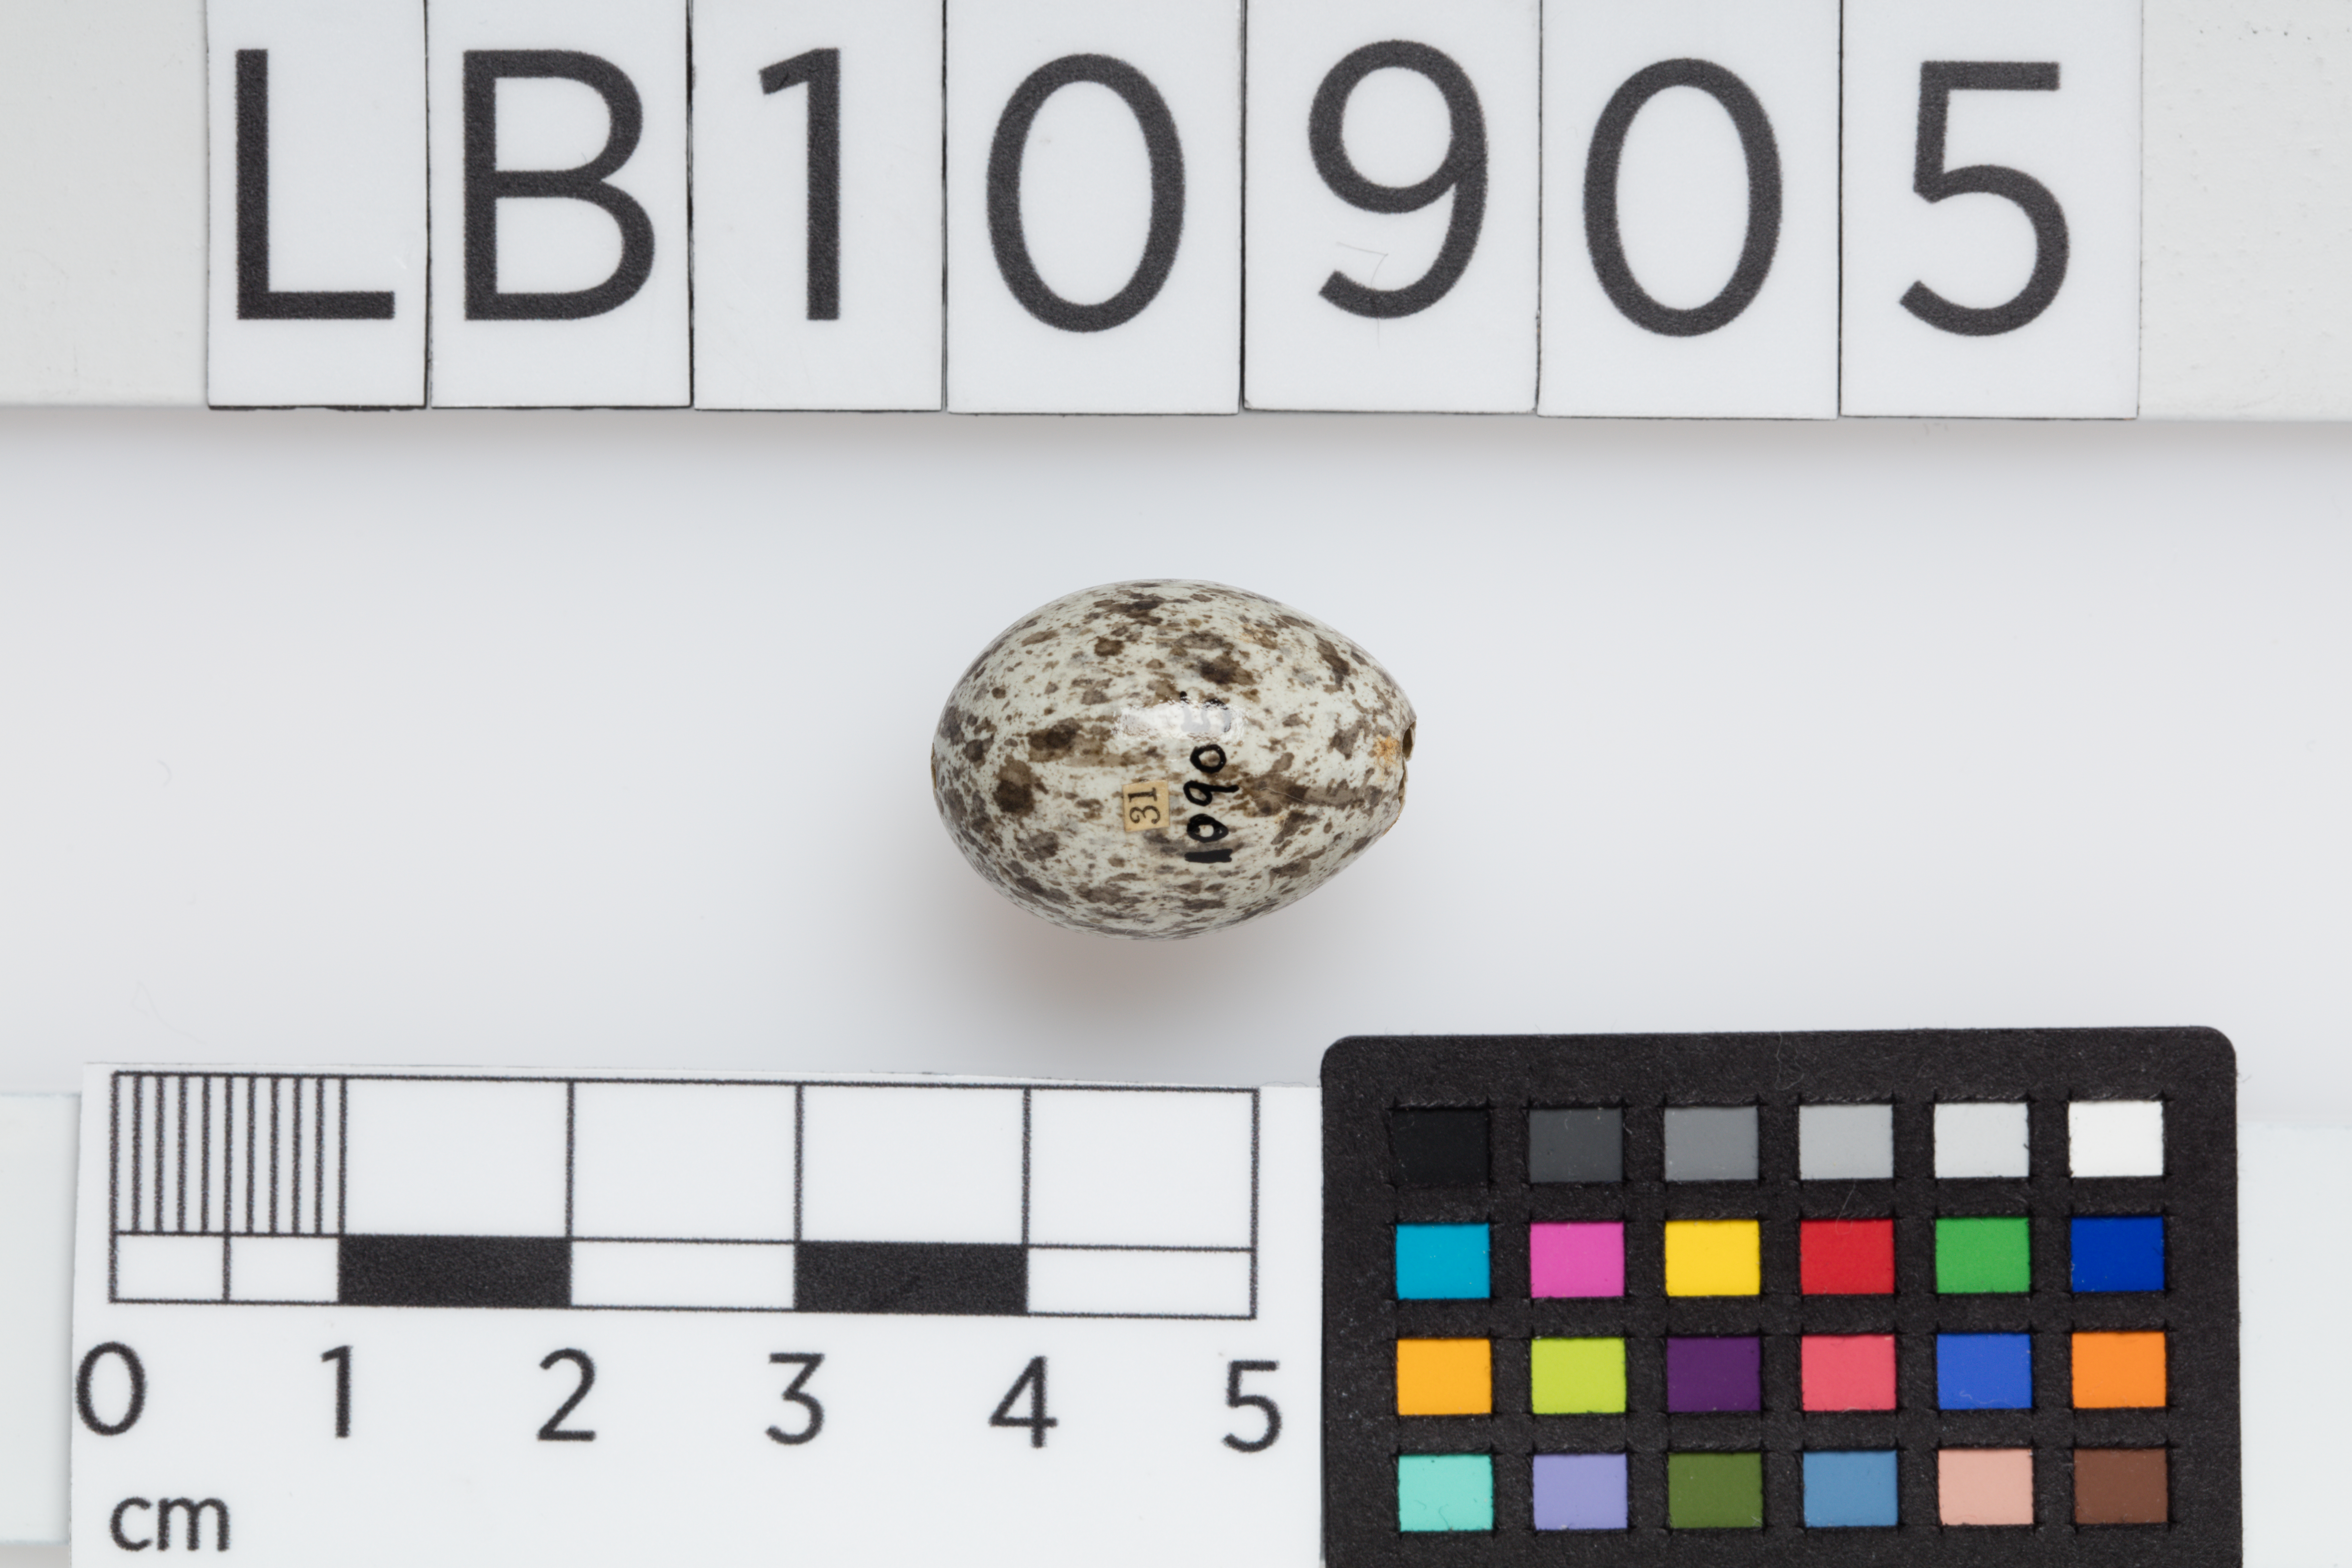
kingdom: Animalia
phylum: Chordata
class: Aves
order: Passeriformes
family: Passeridae
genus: Passer
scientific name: Passer domesticus
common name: House sparrow
